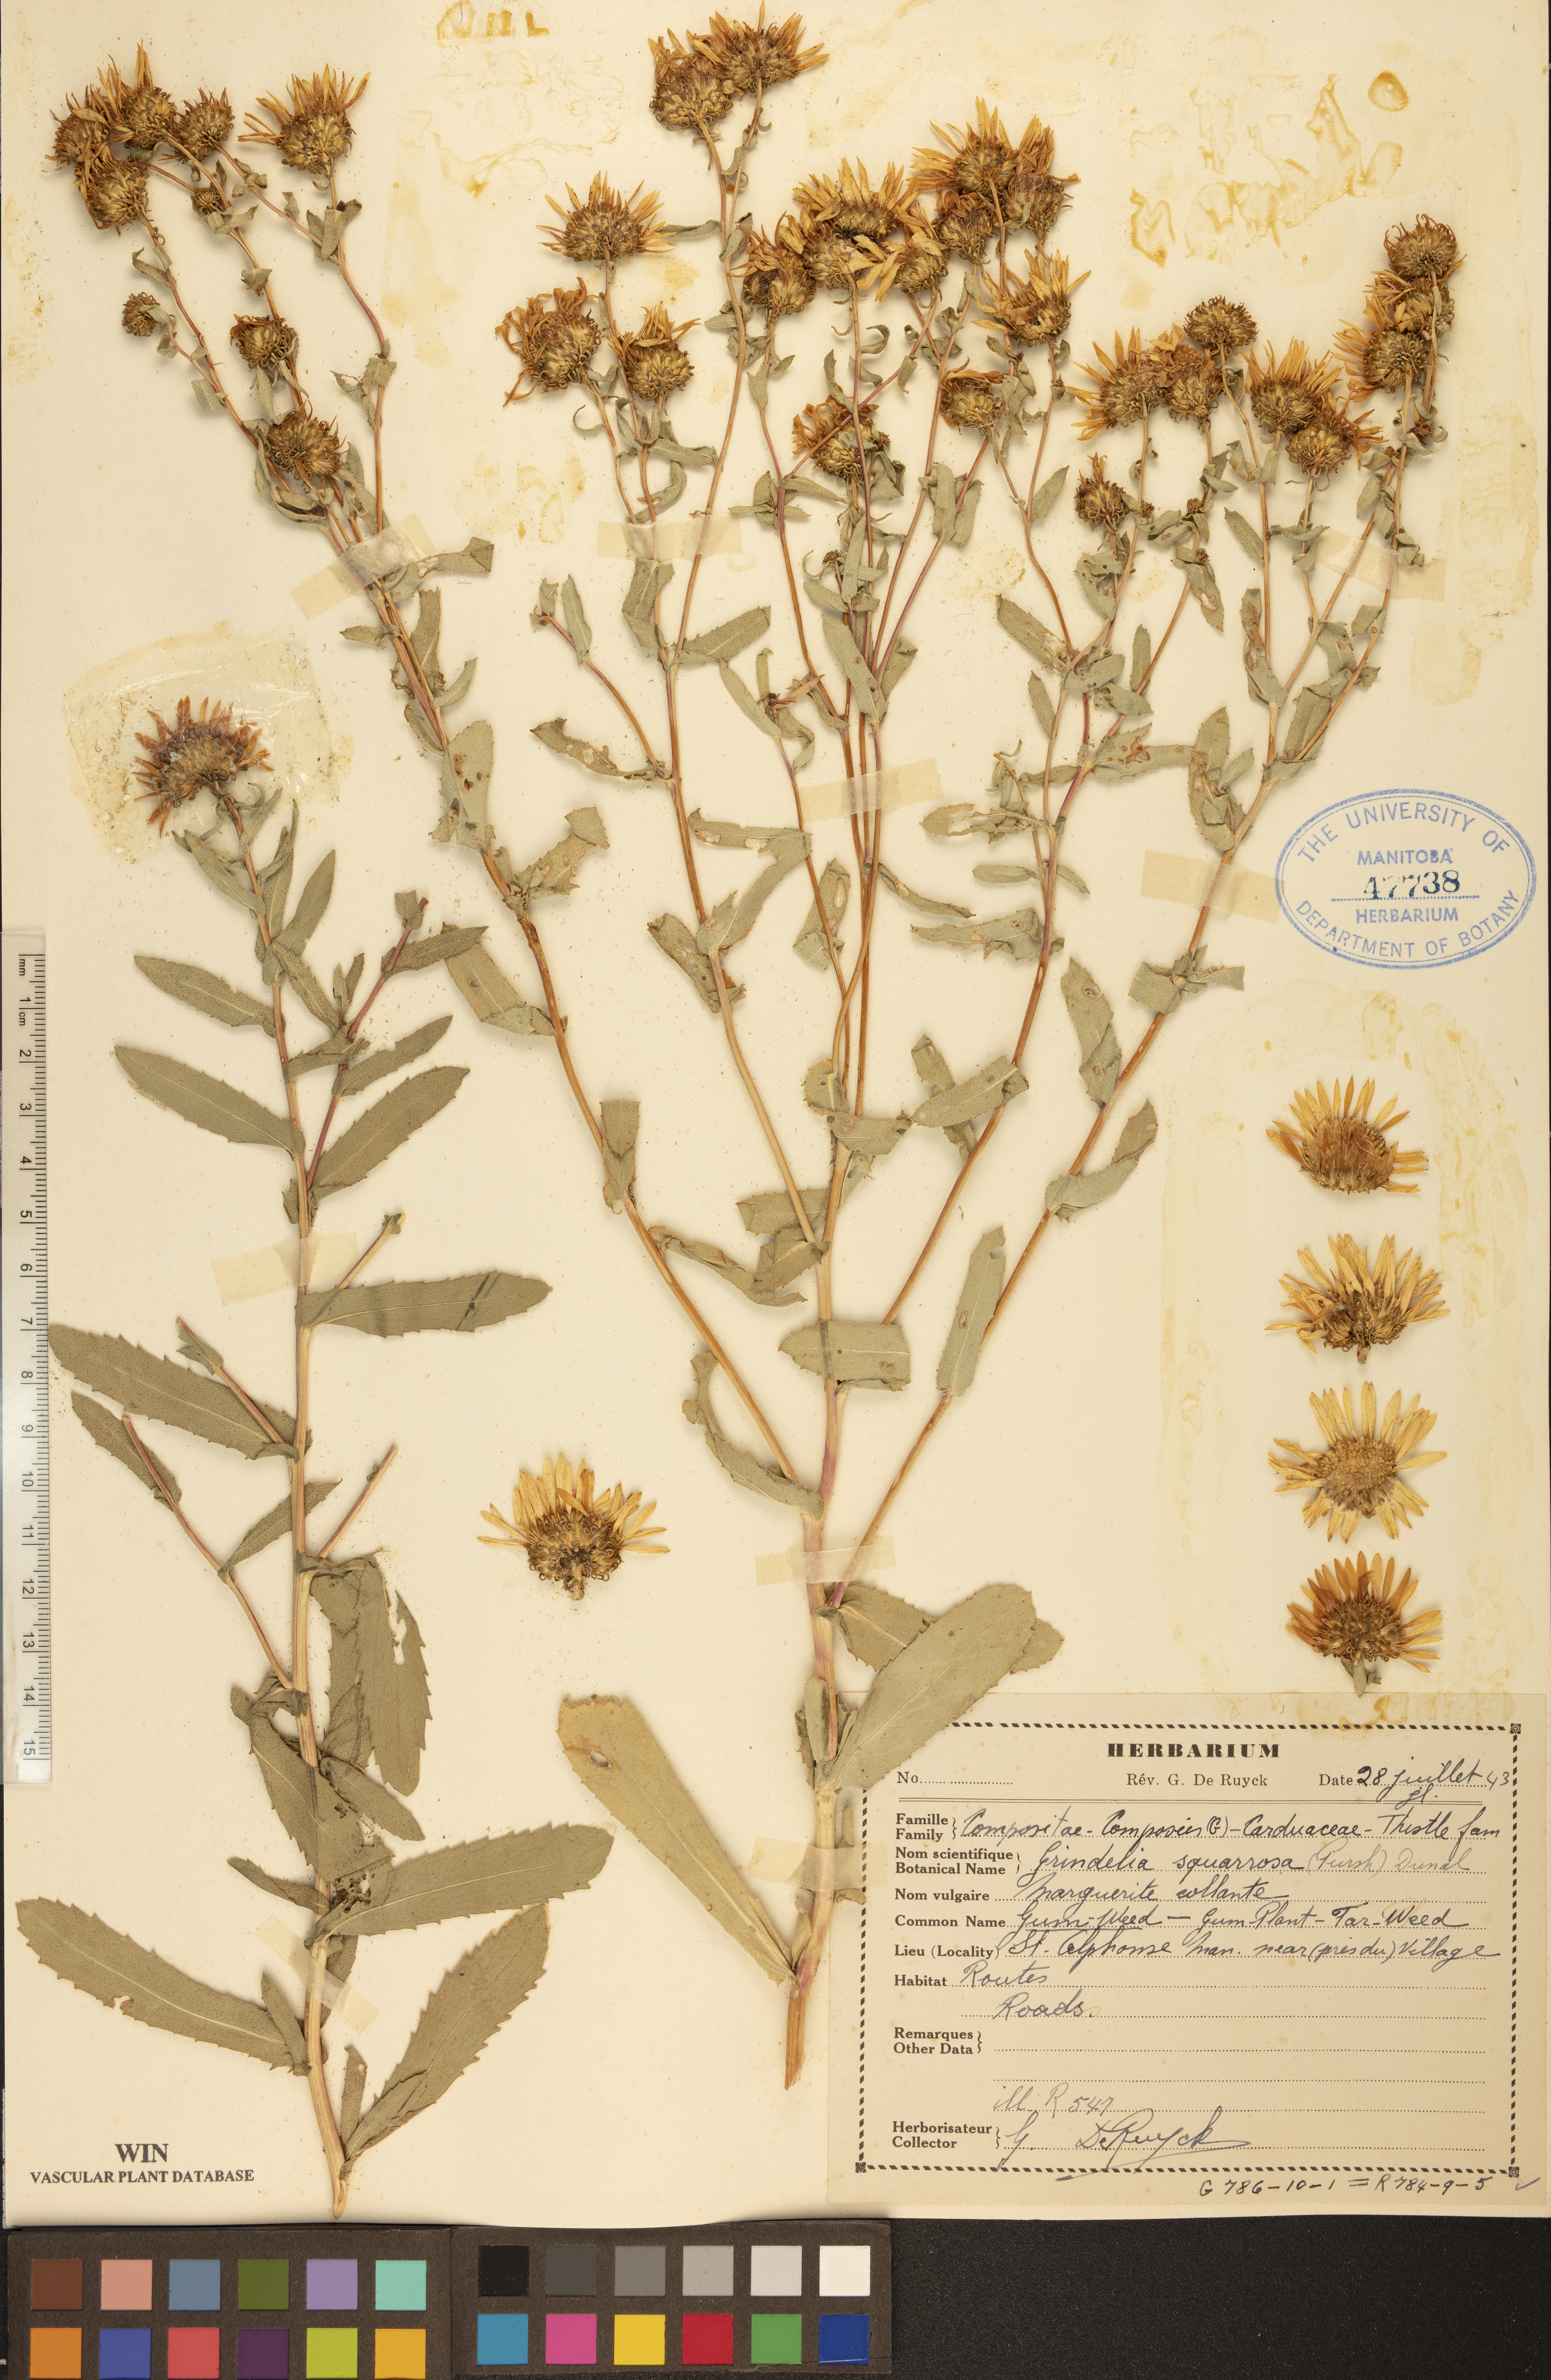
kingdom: Plantae
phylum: Tracheophyta
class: Magnoliopsida
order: Asterales
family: Asteraceae
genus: Grindelia
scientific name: Grindelia squarrosa
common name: Curly-cup gumweed
